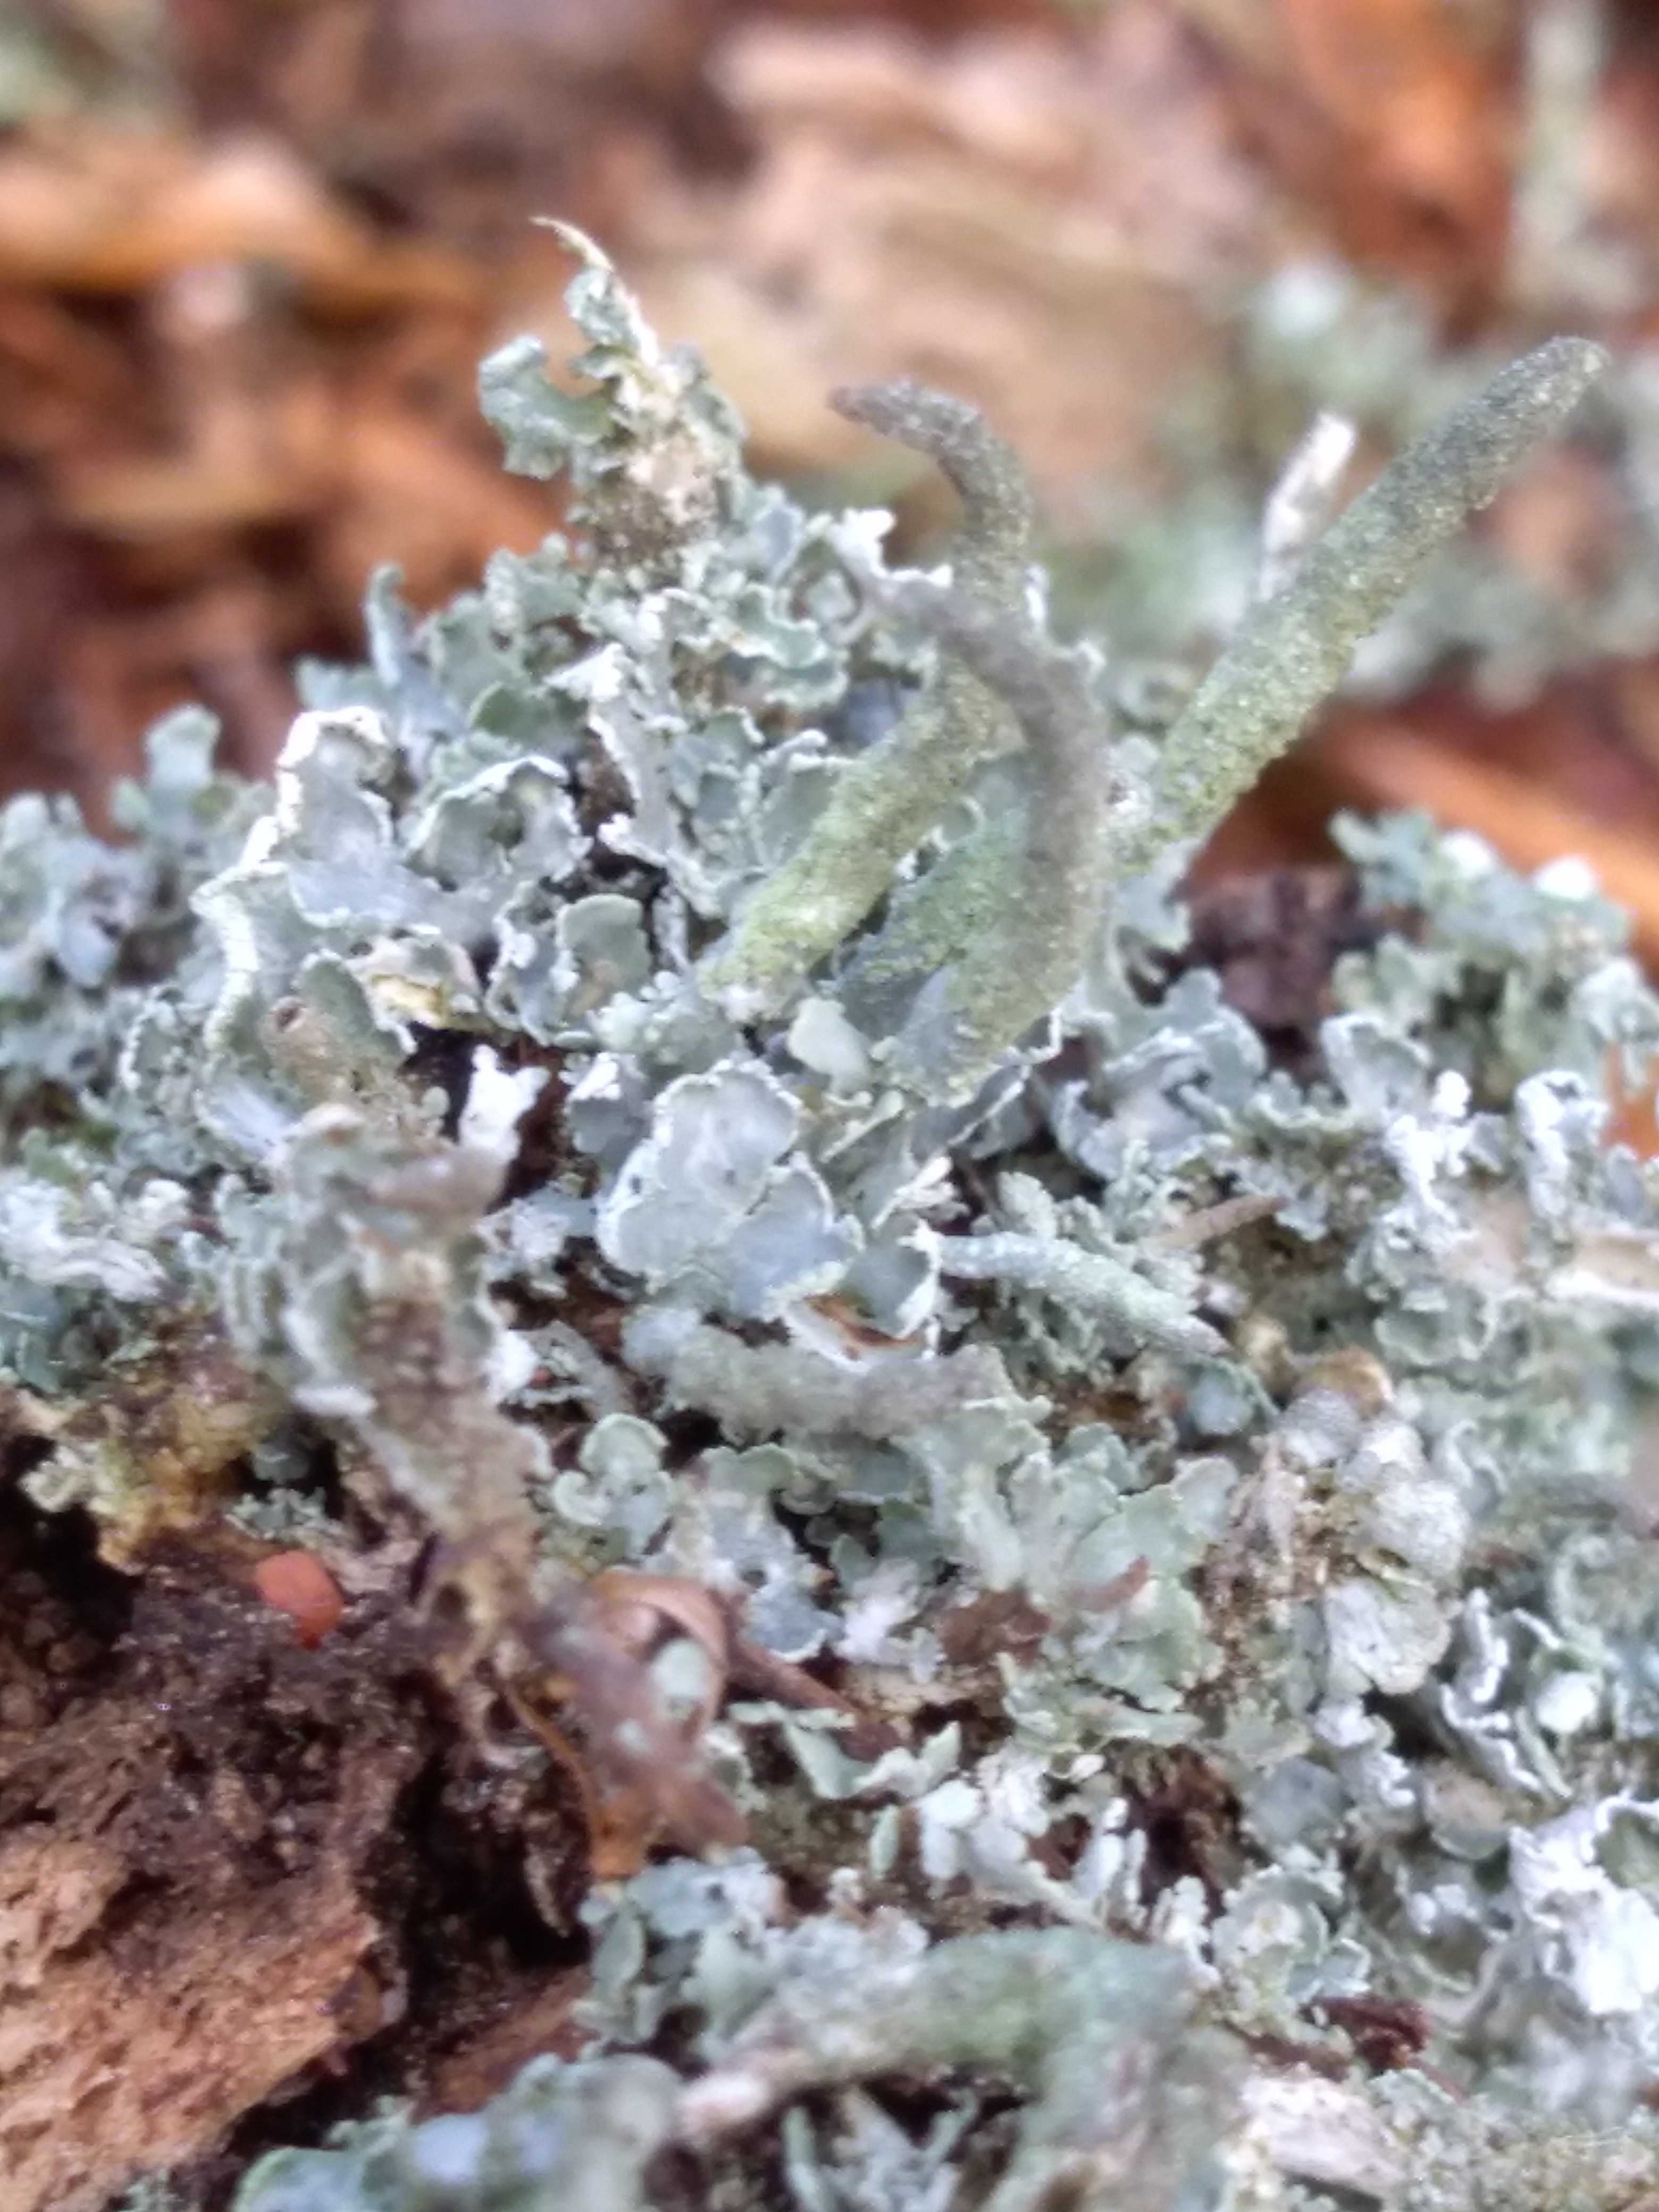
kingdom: Fungi
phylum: Ascomycota
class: Lecanoromycetes
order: Lecanorales
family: Cladoniaceae
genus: Cladonia
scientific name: Cladonia
